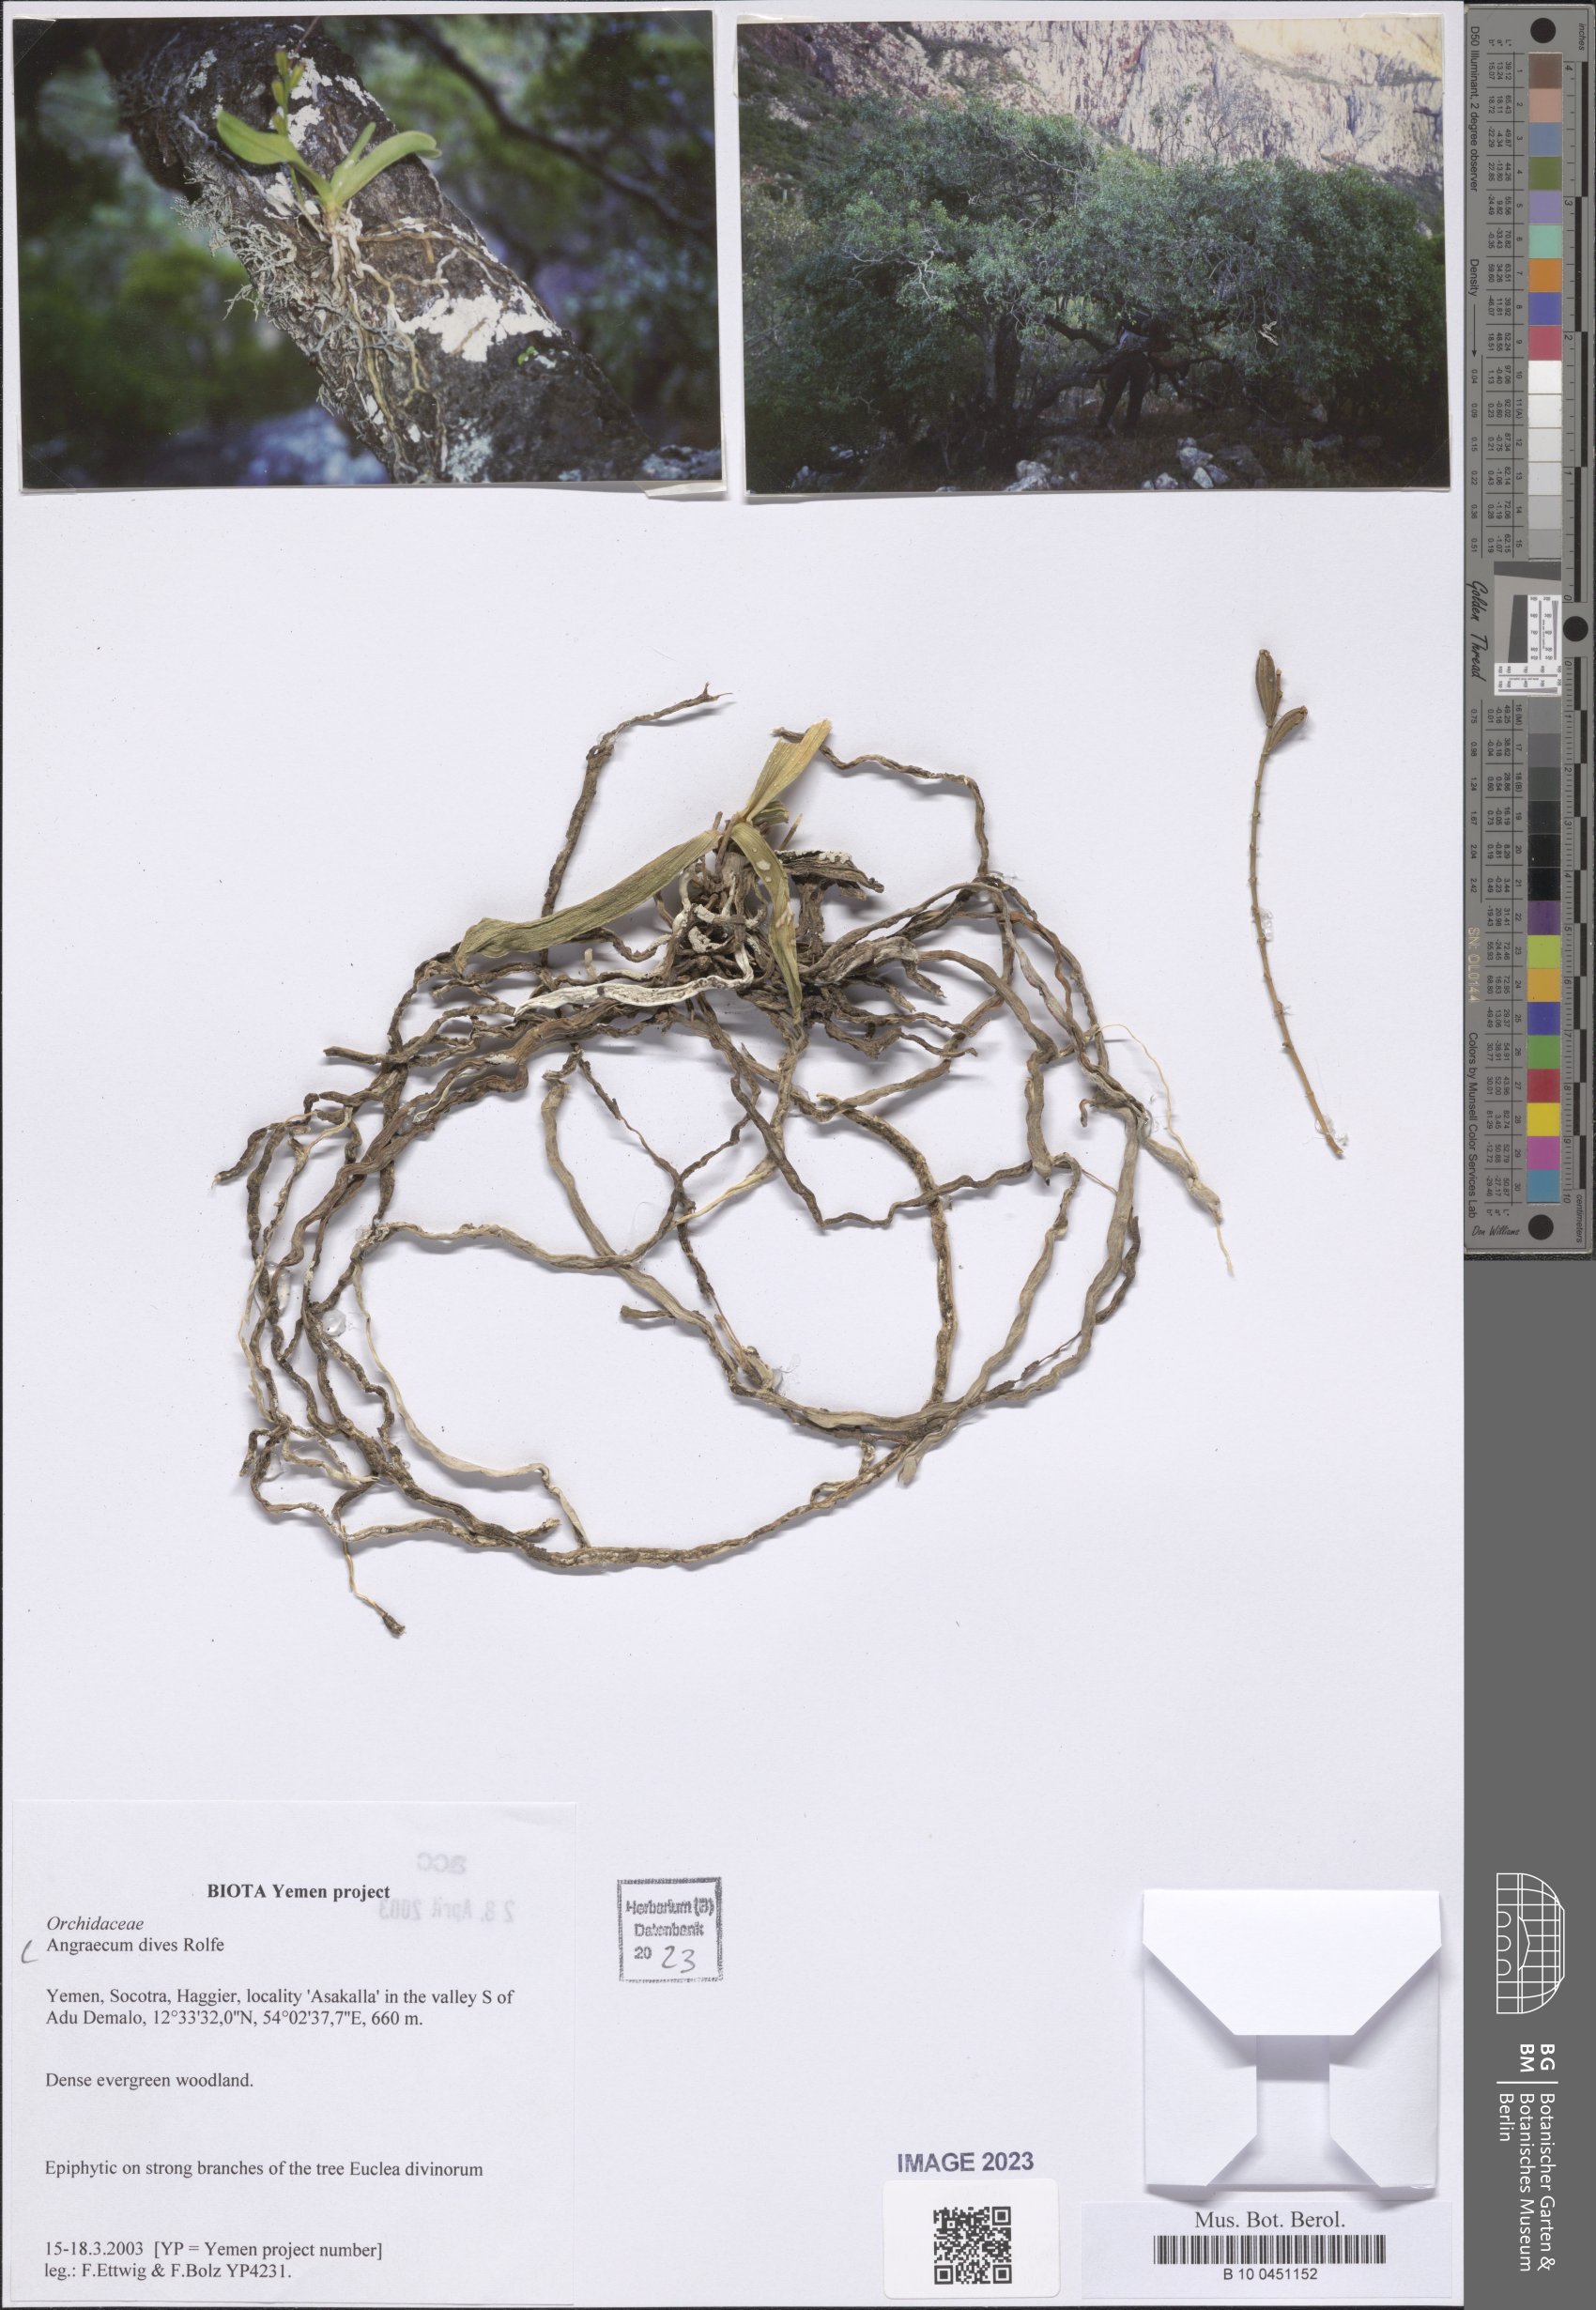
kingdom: Plantae
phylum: Tracheophyta
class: Liliopsida
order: Asparagales
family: Orchidaceae
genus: Angraecum
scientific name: Angraecum dives
